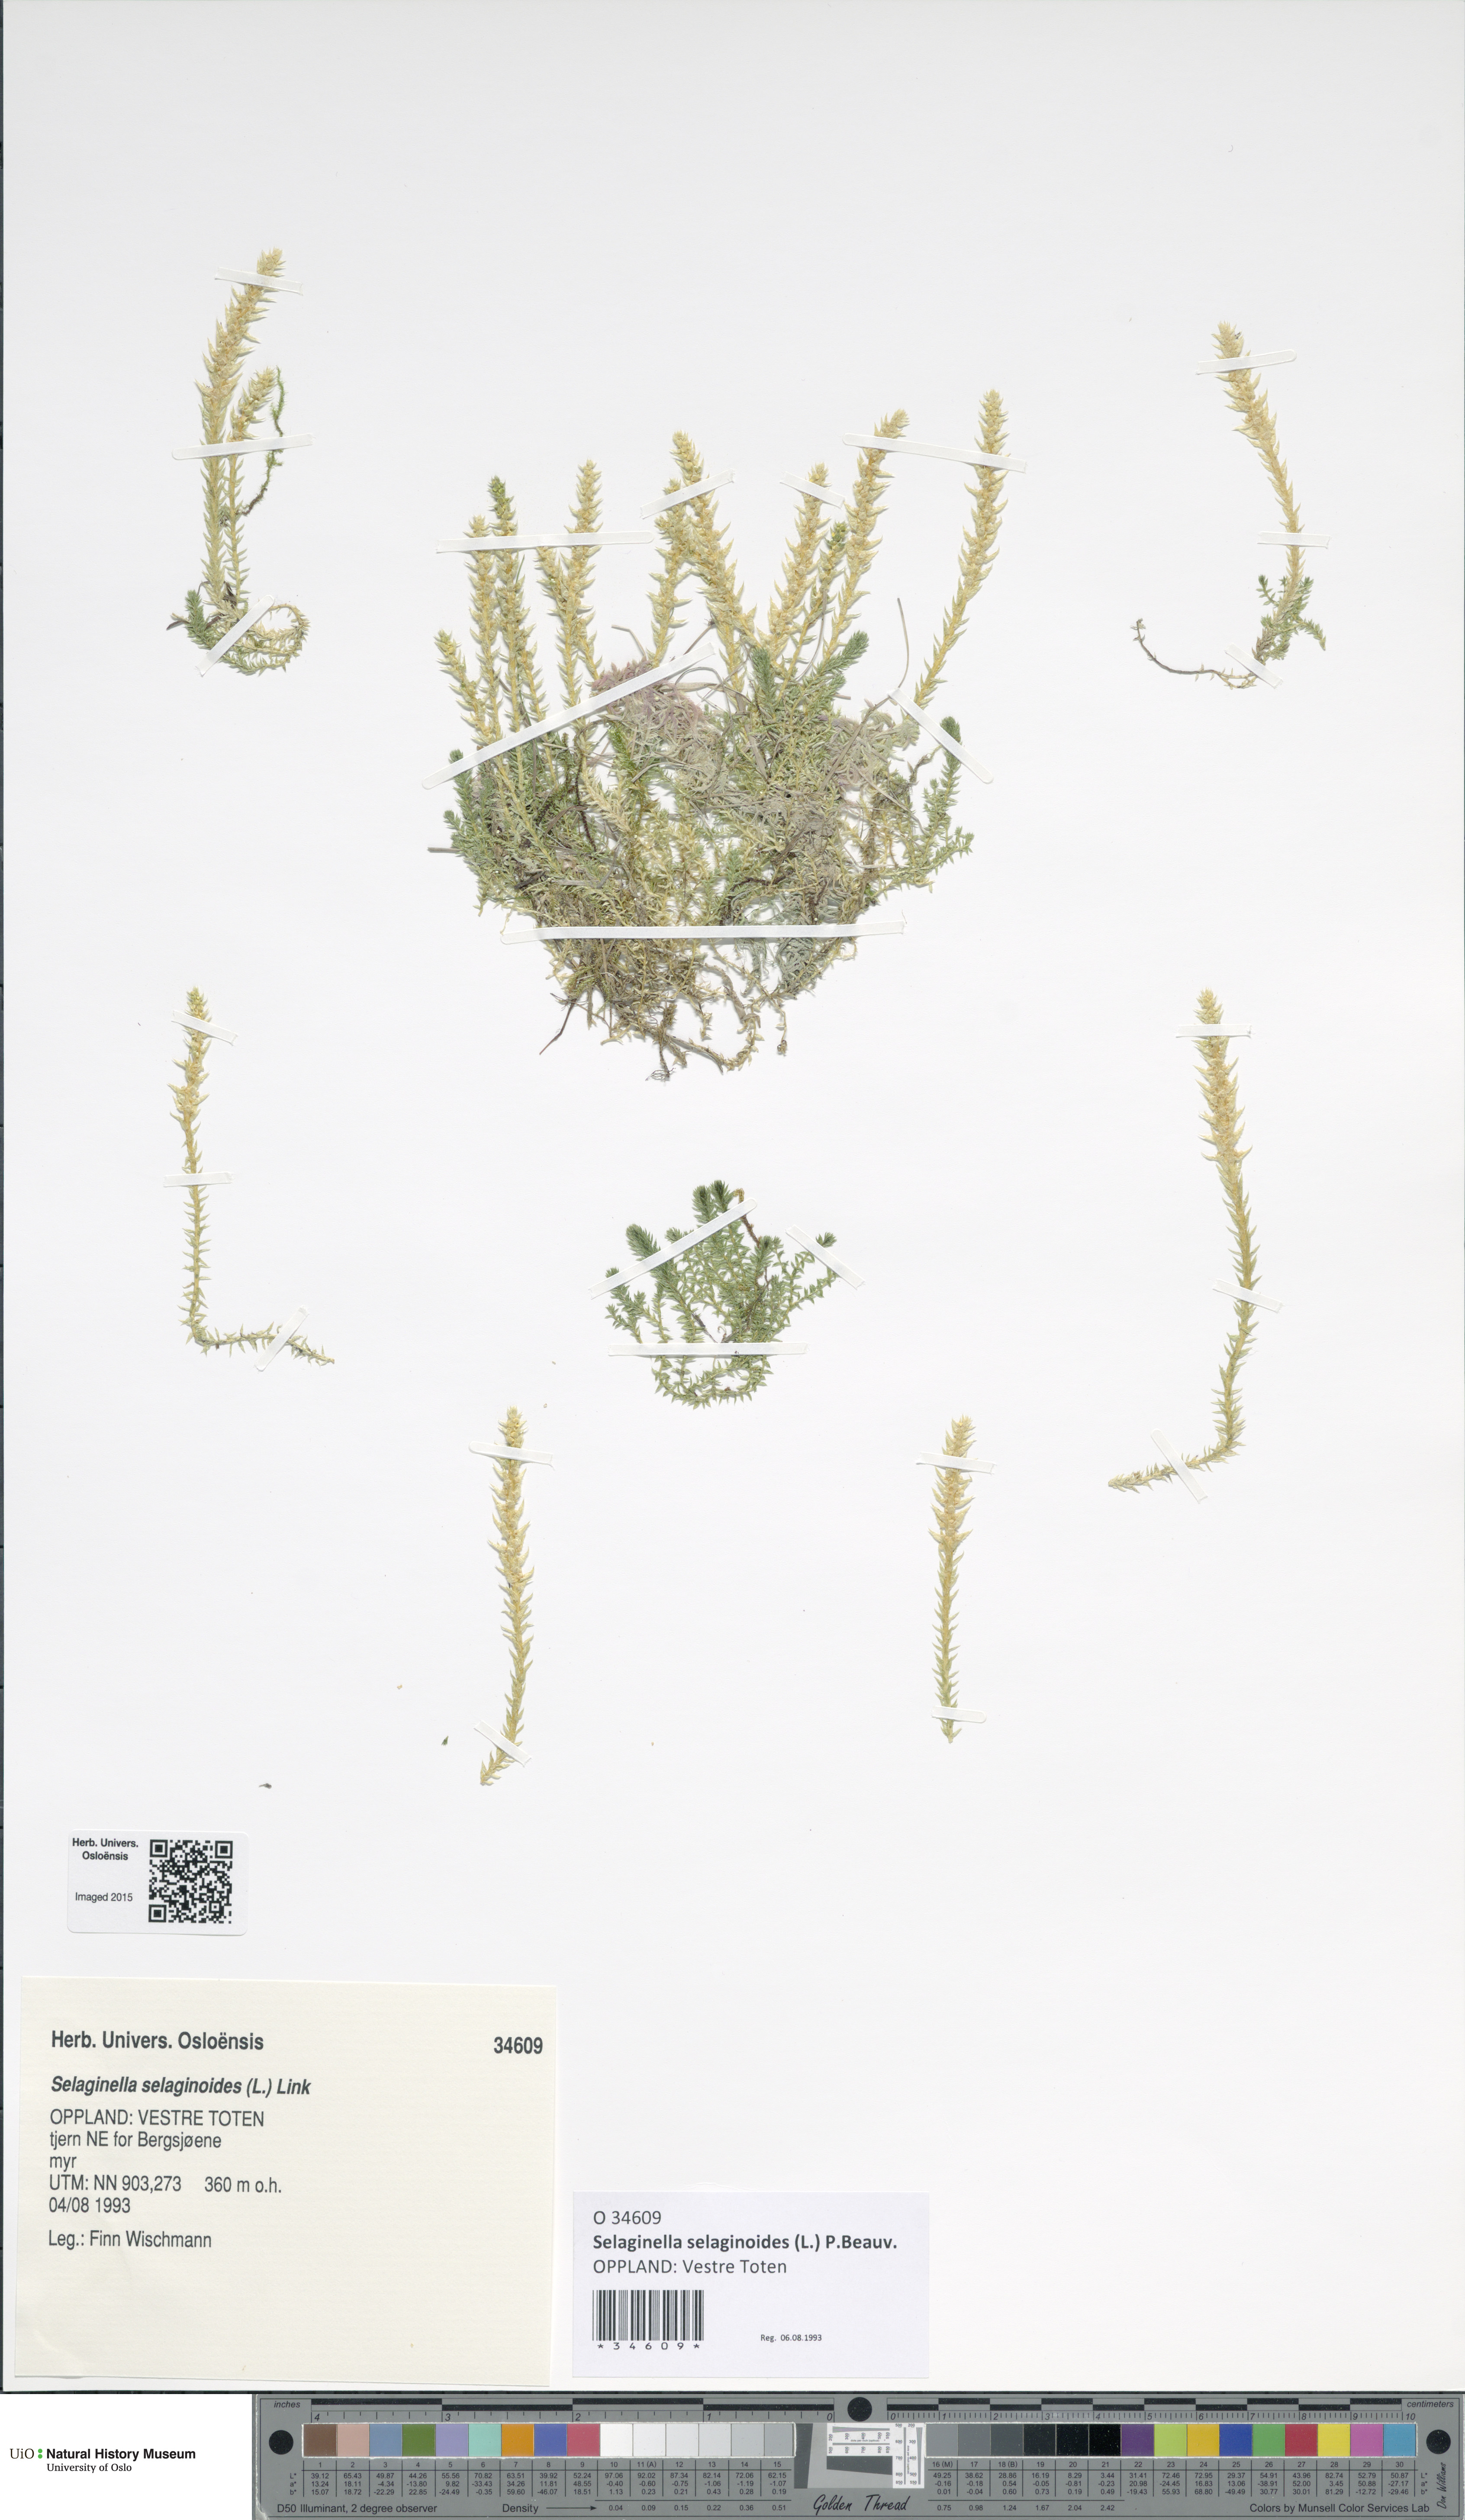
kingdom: Plantae
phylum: Tracheophyta
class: Lycopodiopsida
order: Selaginellales
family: Selaginellaceae
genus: Selaginella
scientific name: Selaginella selaginoides
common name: Prickly mountain-moss
